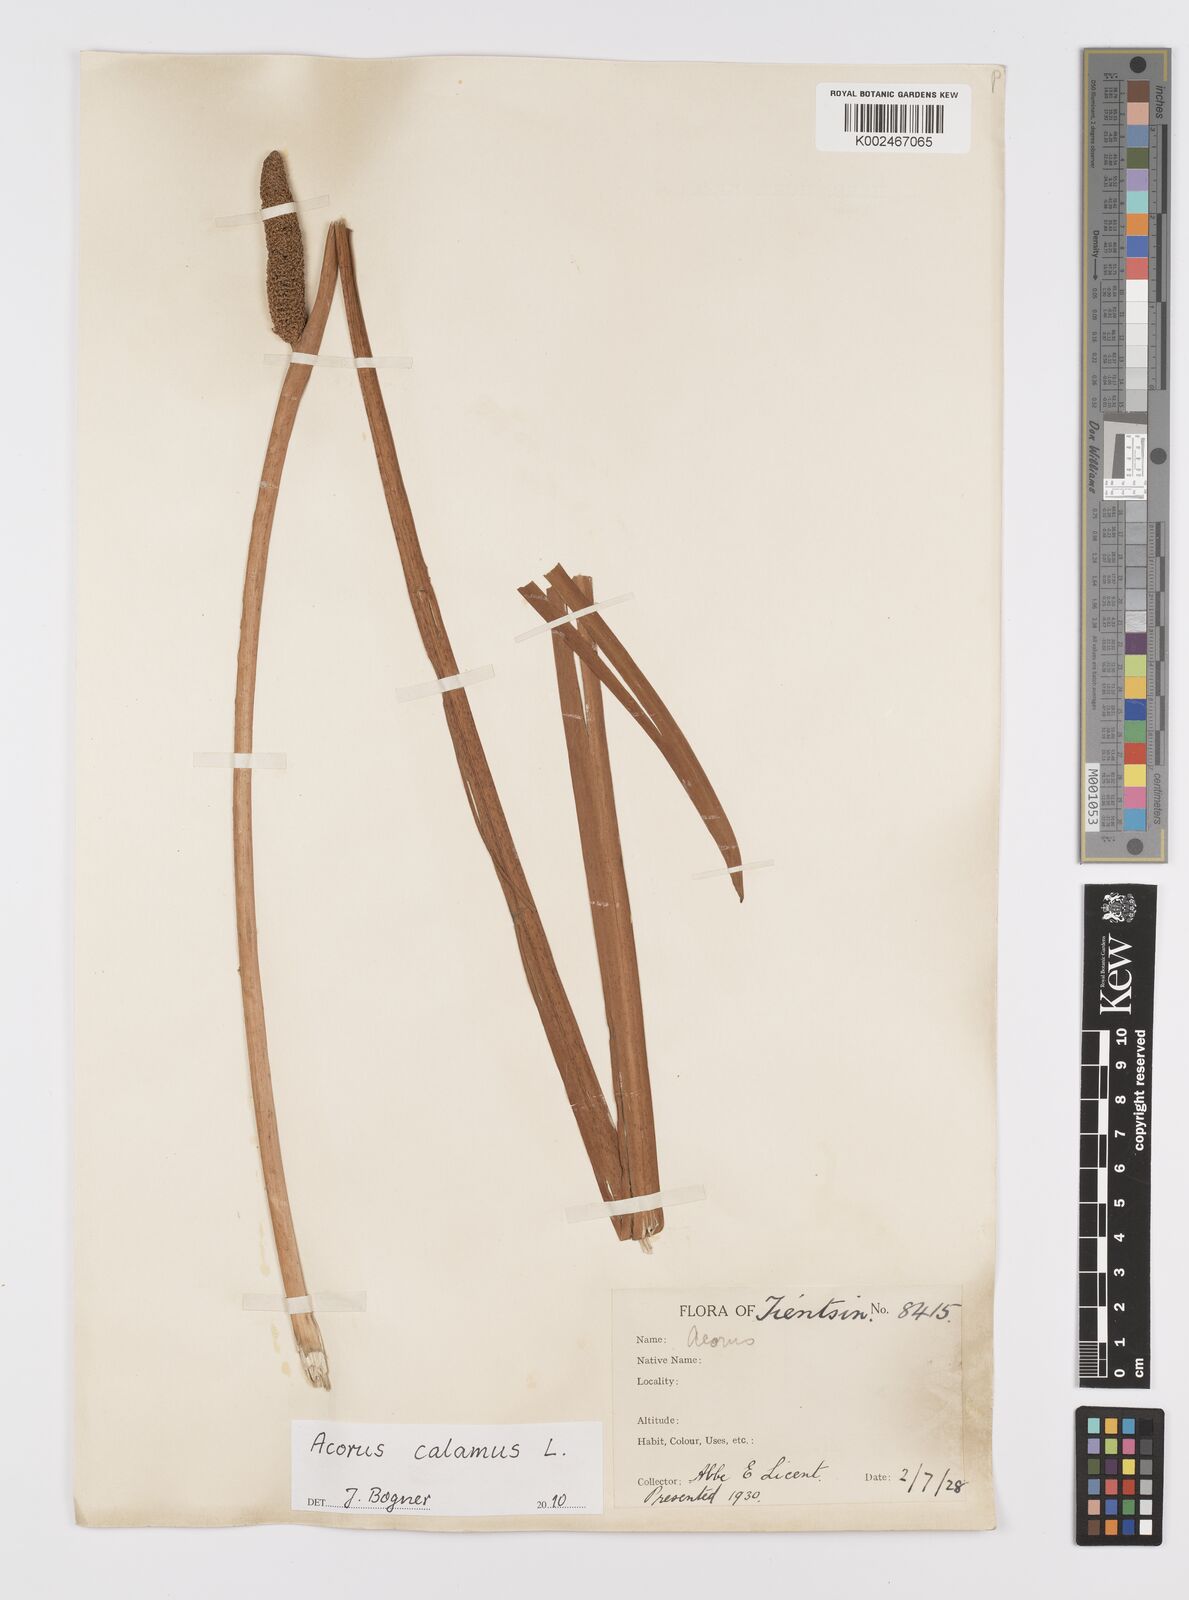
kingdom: Plantae
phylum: Tracheophyta
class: Liliopsida
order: Acorales
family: Acoraceae
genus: Acorus
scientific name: Acorus calamus
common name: Sweet-flag
